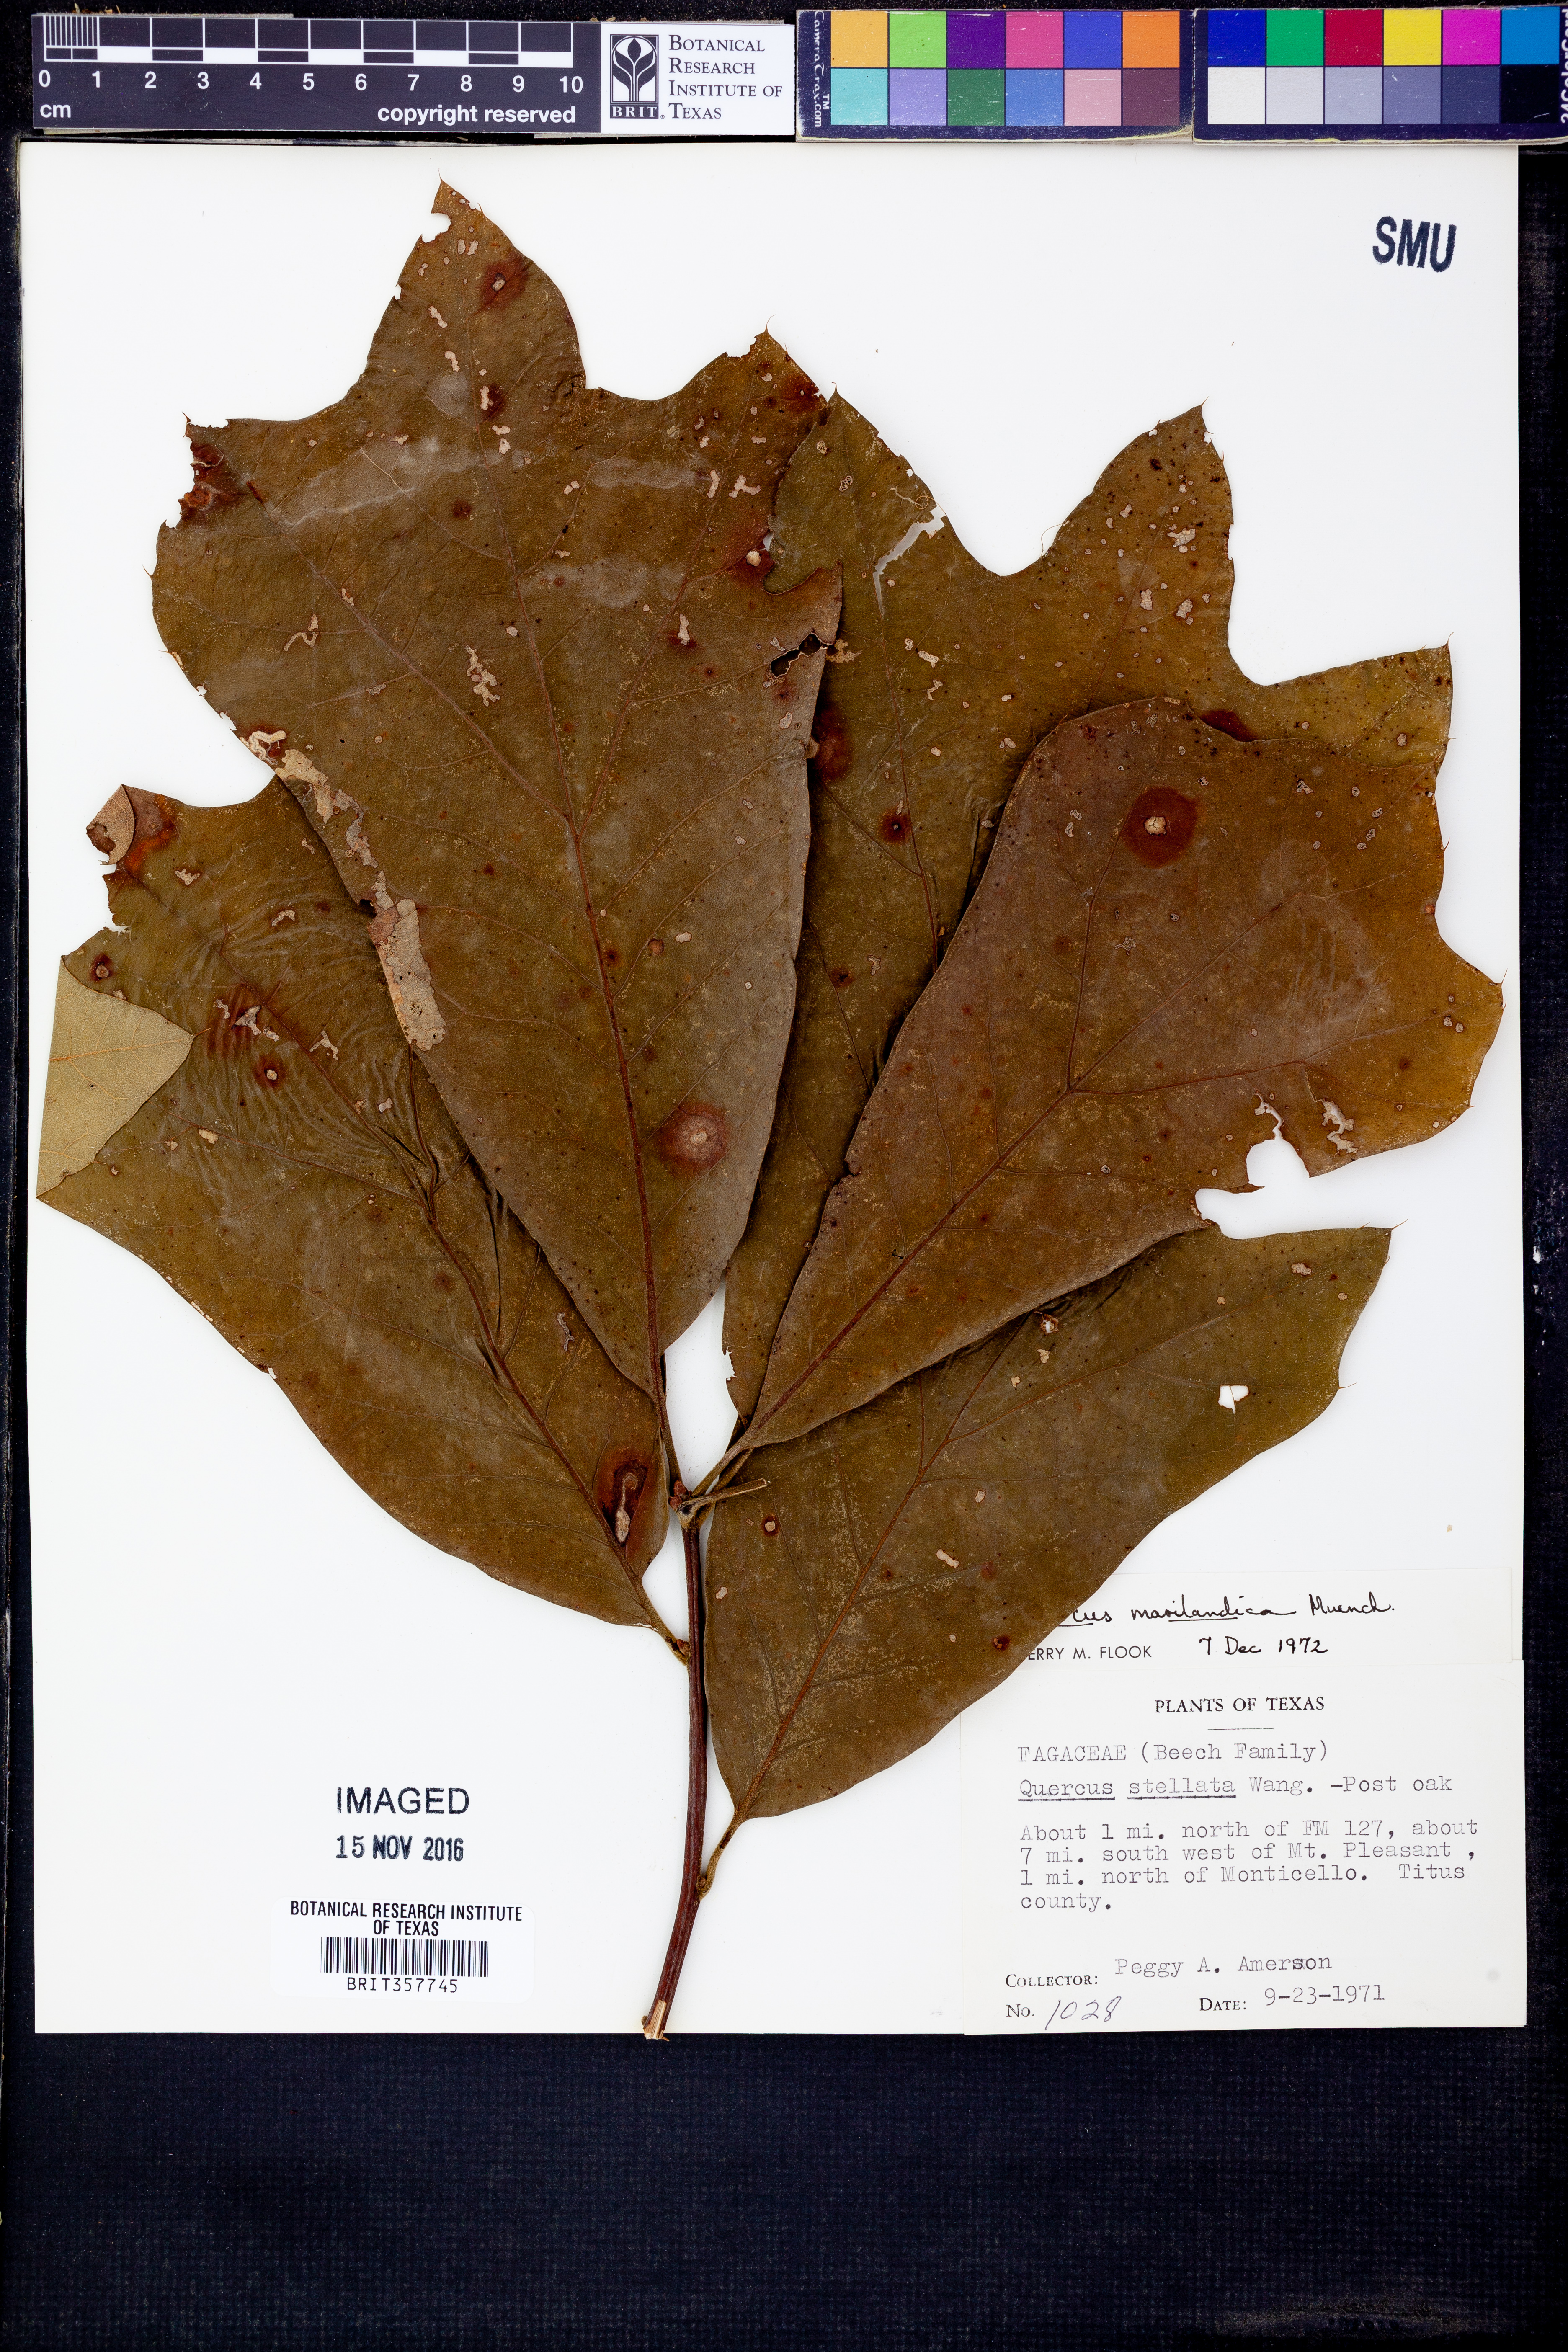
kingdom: Plantae
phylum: Tracheophyta
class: Magnoliopsida
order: Fagales
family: Fagaceae
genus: Quercus
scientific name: Quercus marilandica
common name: Blackjack oak
